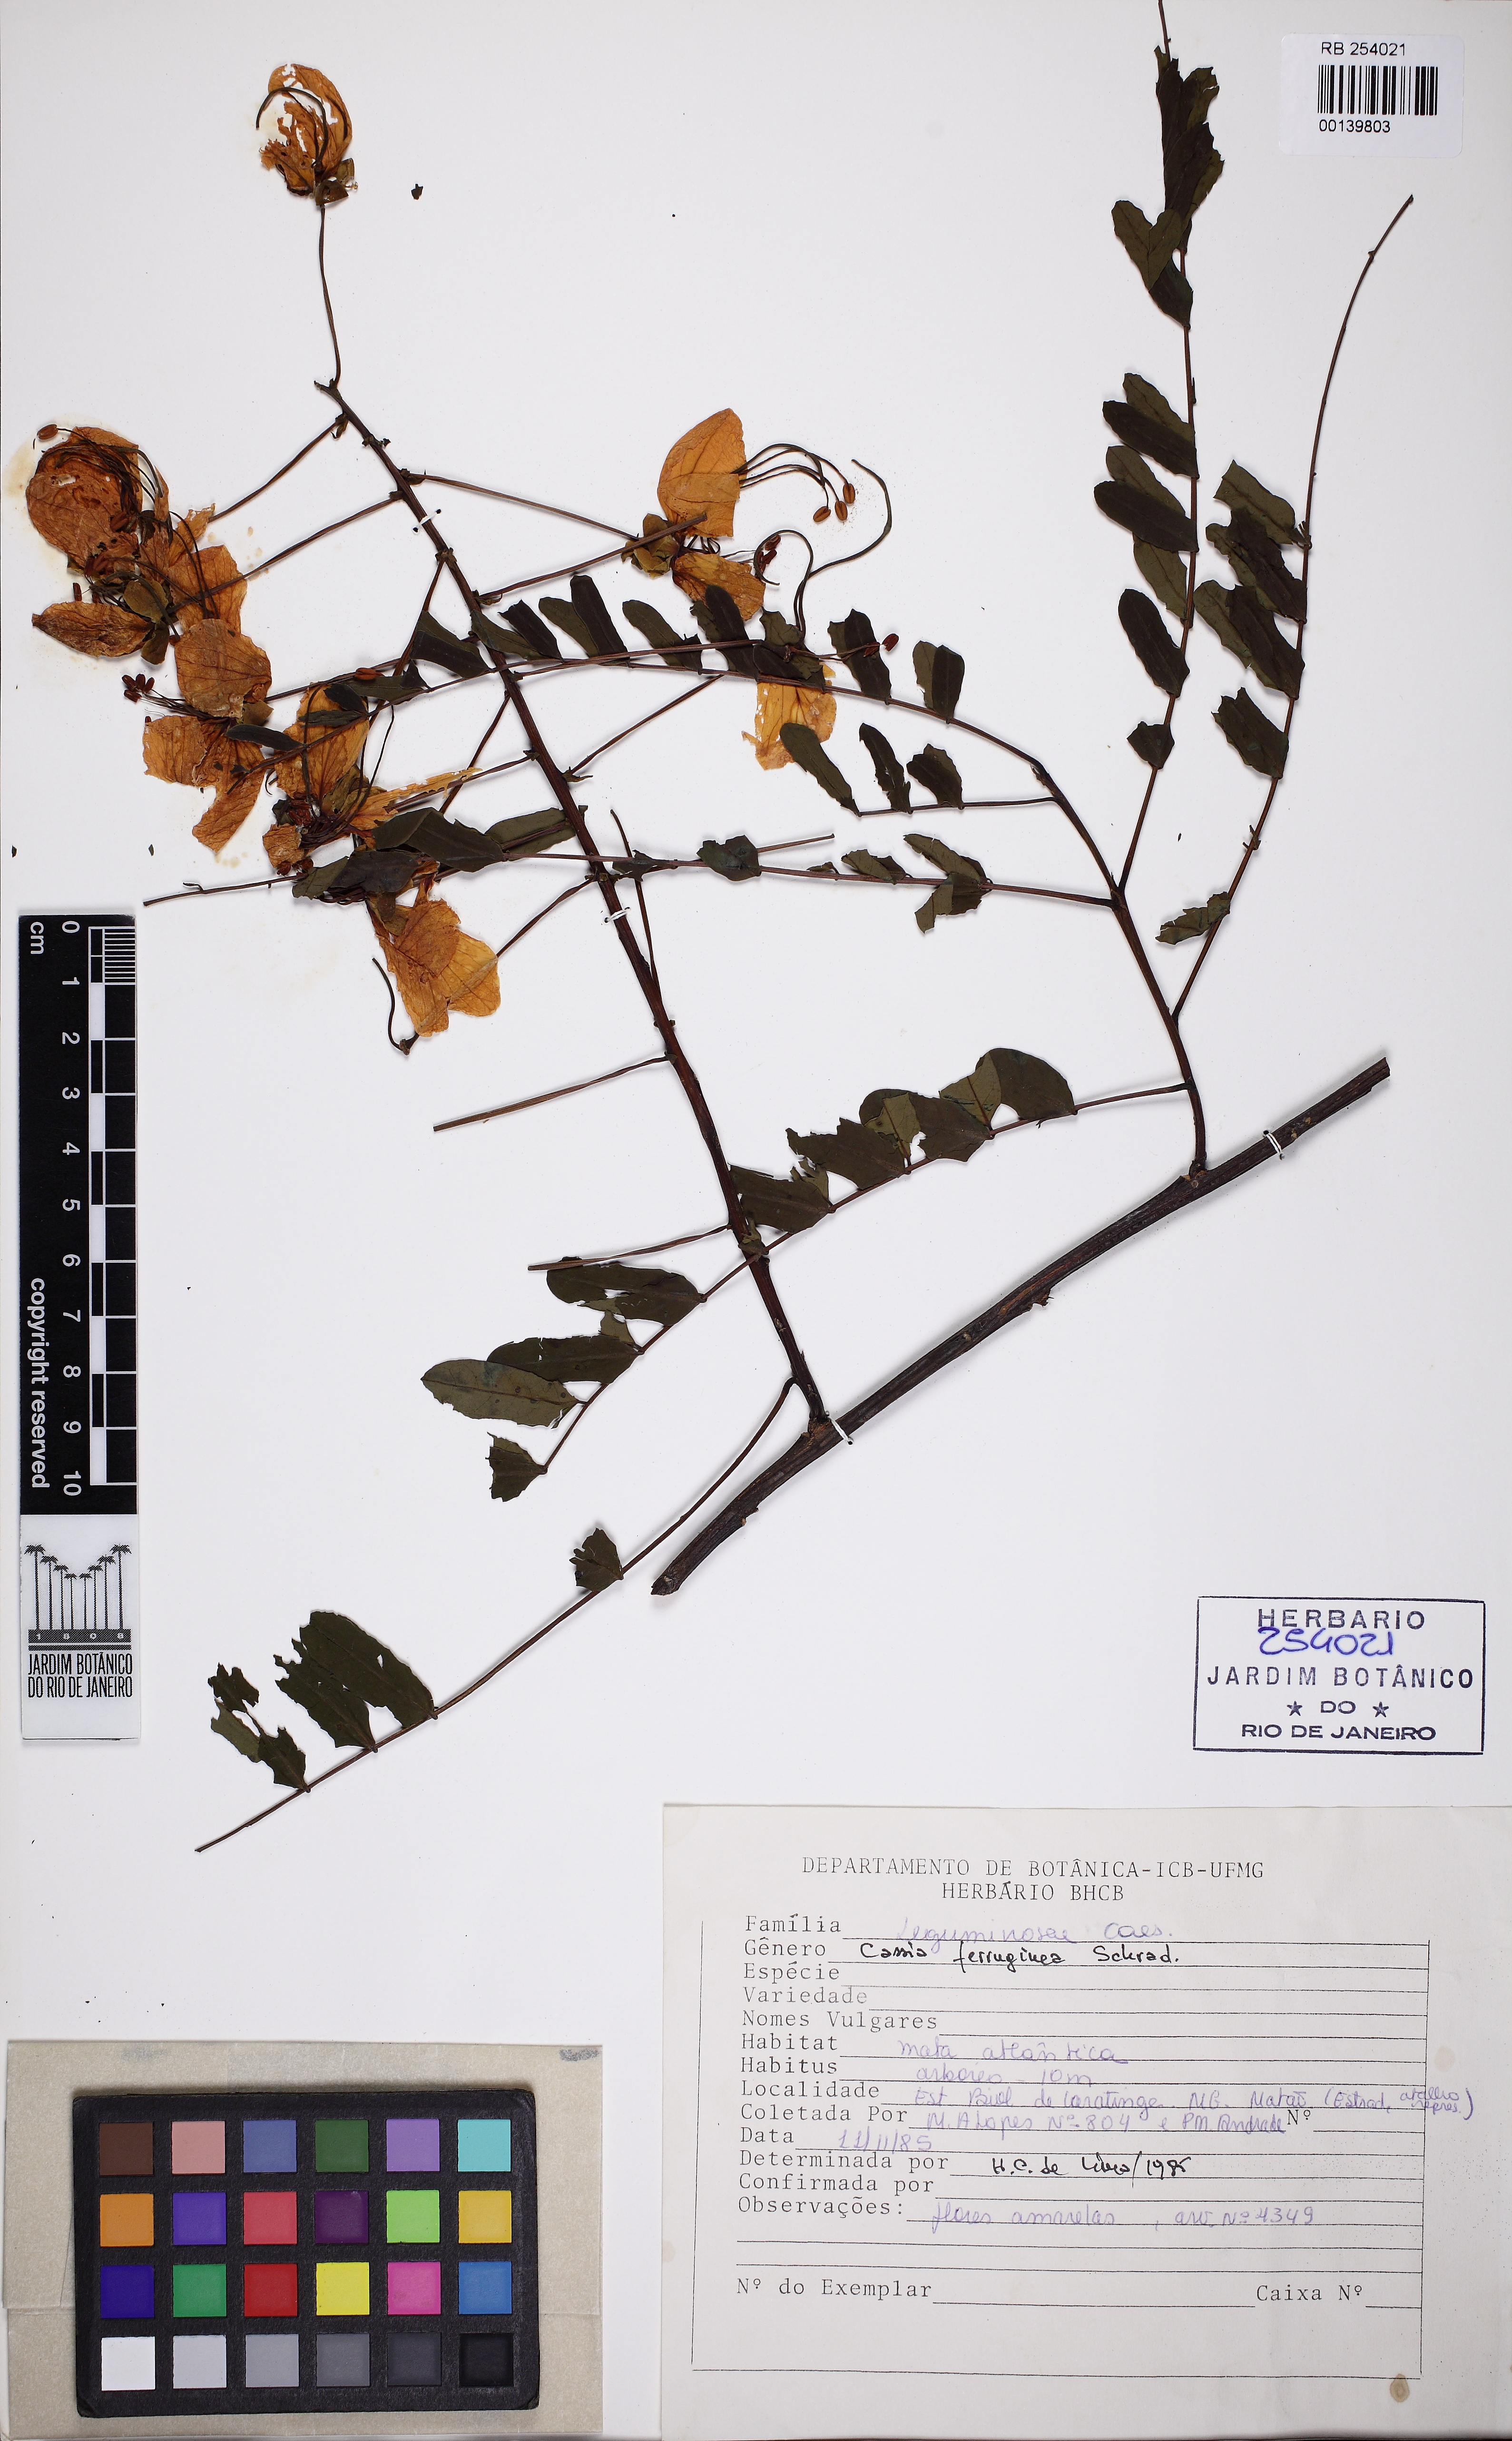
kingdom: Plantae
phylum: Tracheophyta
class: Magnoliopsida
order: Fabales
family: Fabaceae
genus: Cassia
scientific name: Cassia ferruginea
